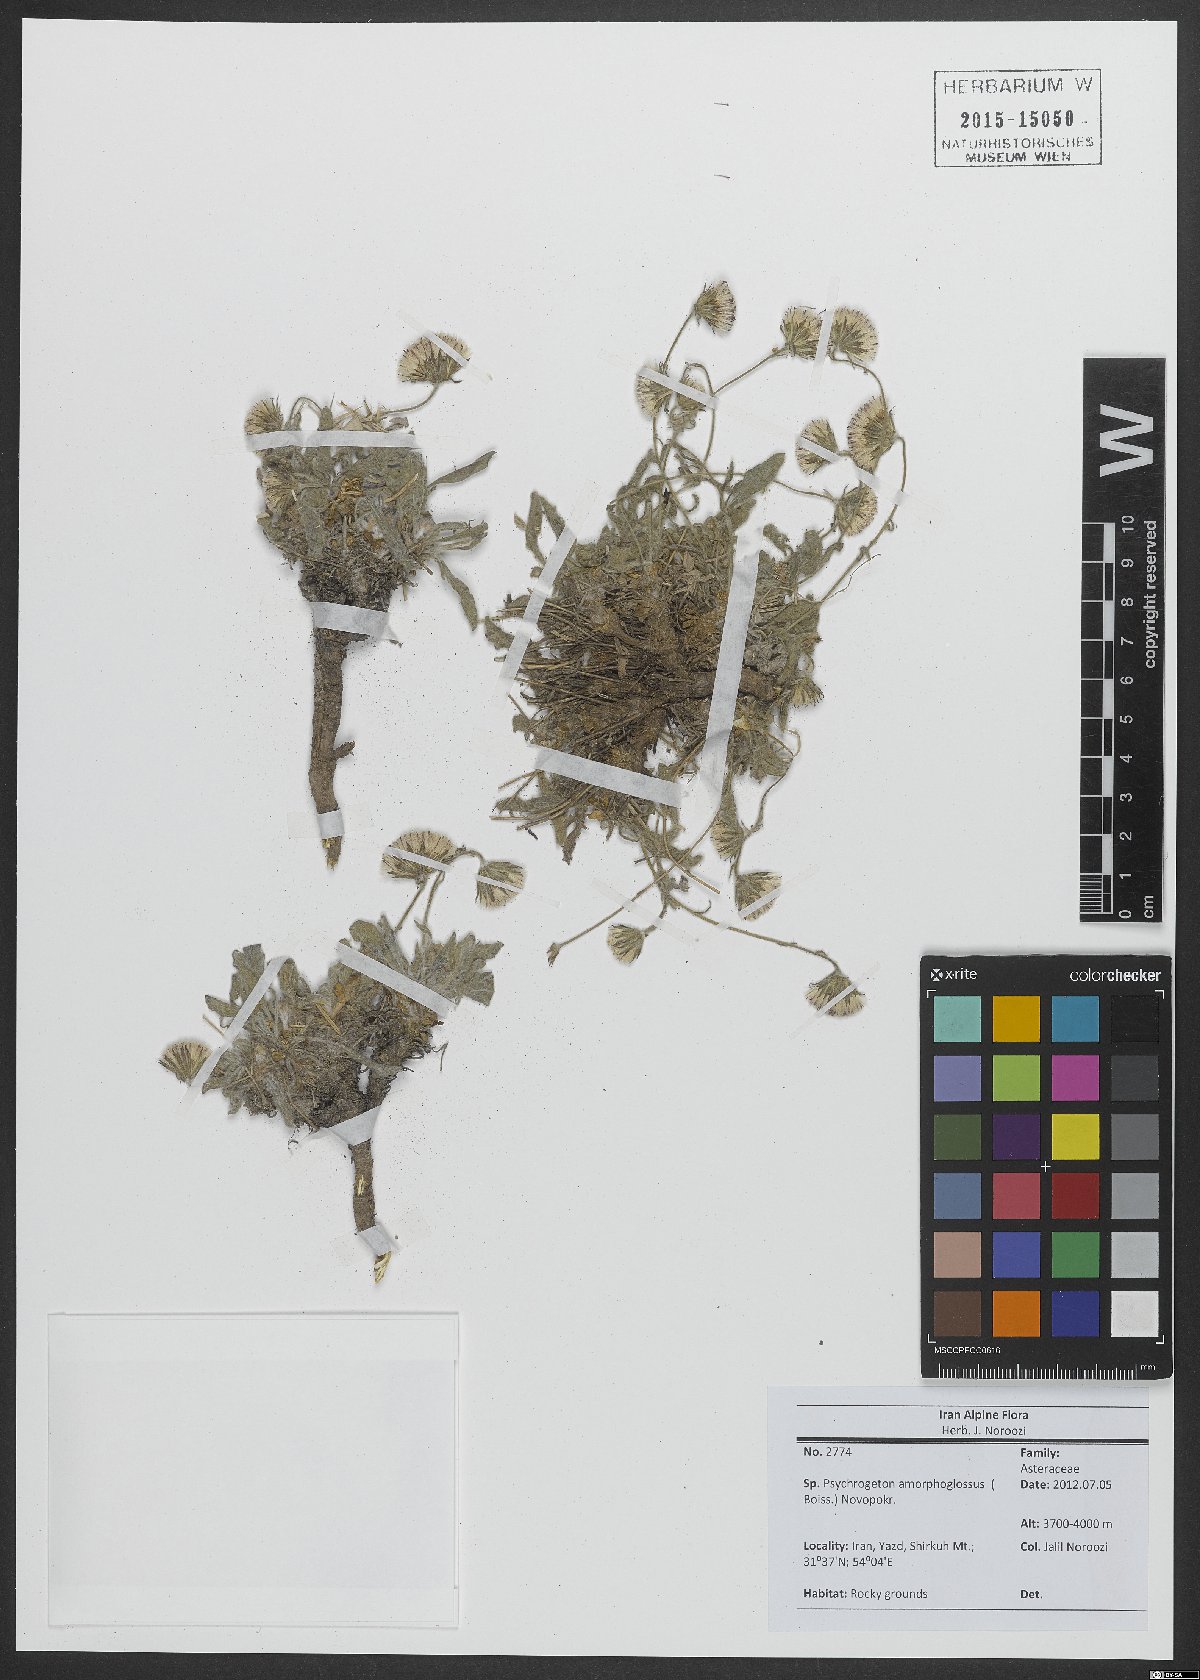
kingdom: Plantae
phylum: Tracheophyta
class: Magnoliopsida
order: Asterales
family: Asteraceae
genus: Psychrogeton
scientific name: Psychrogeton amorphoglossus
